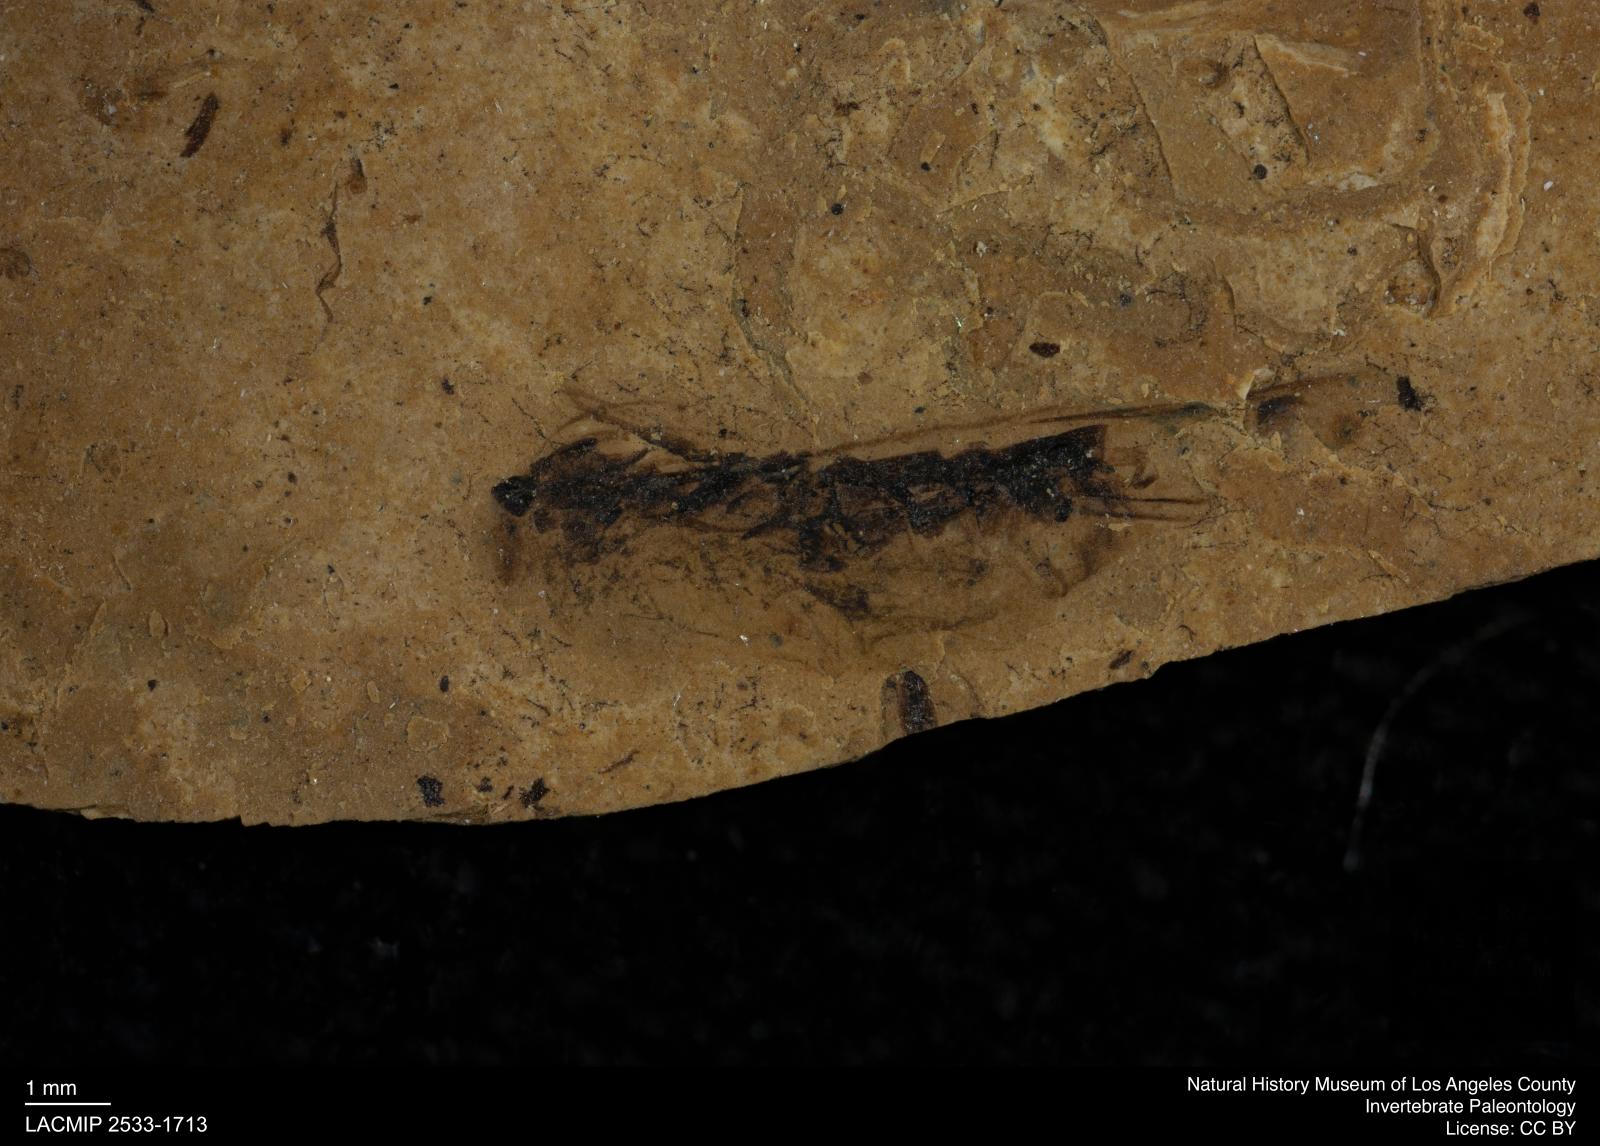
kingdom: Animalia
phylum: Arthropoda
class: Insecta
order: Hemiptera
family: Notonectidae
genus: Notonecta
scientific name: Notonecta
